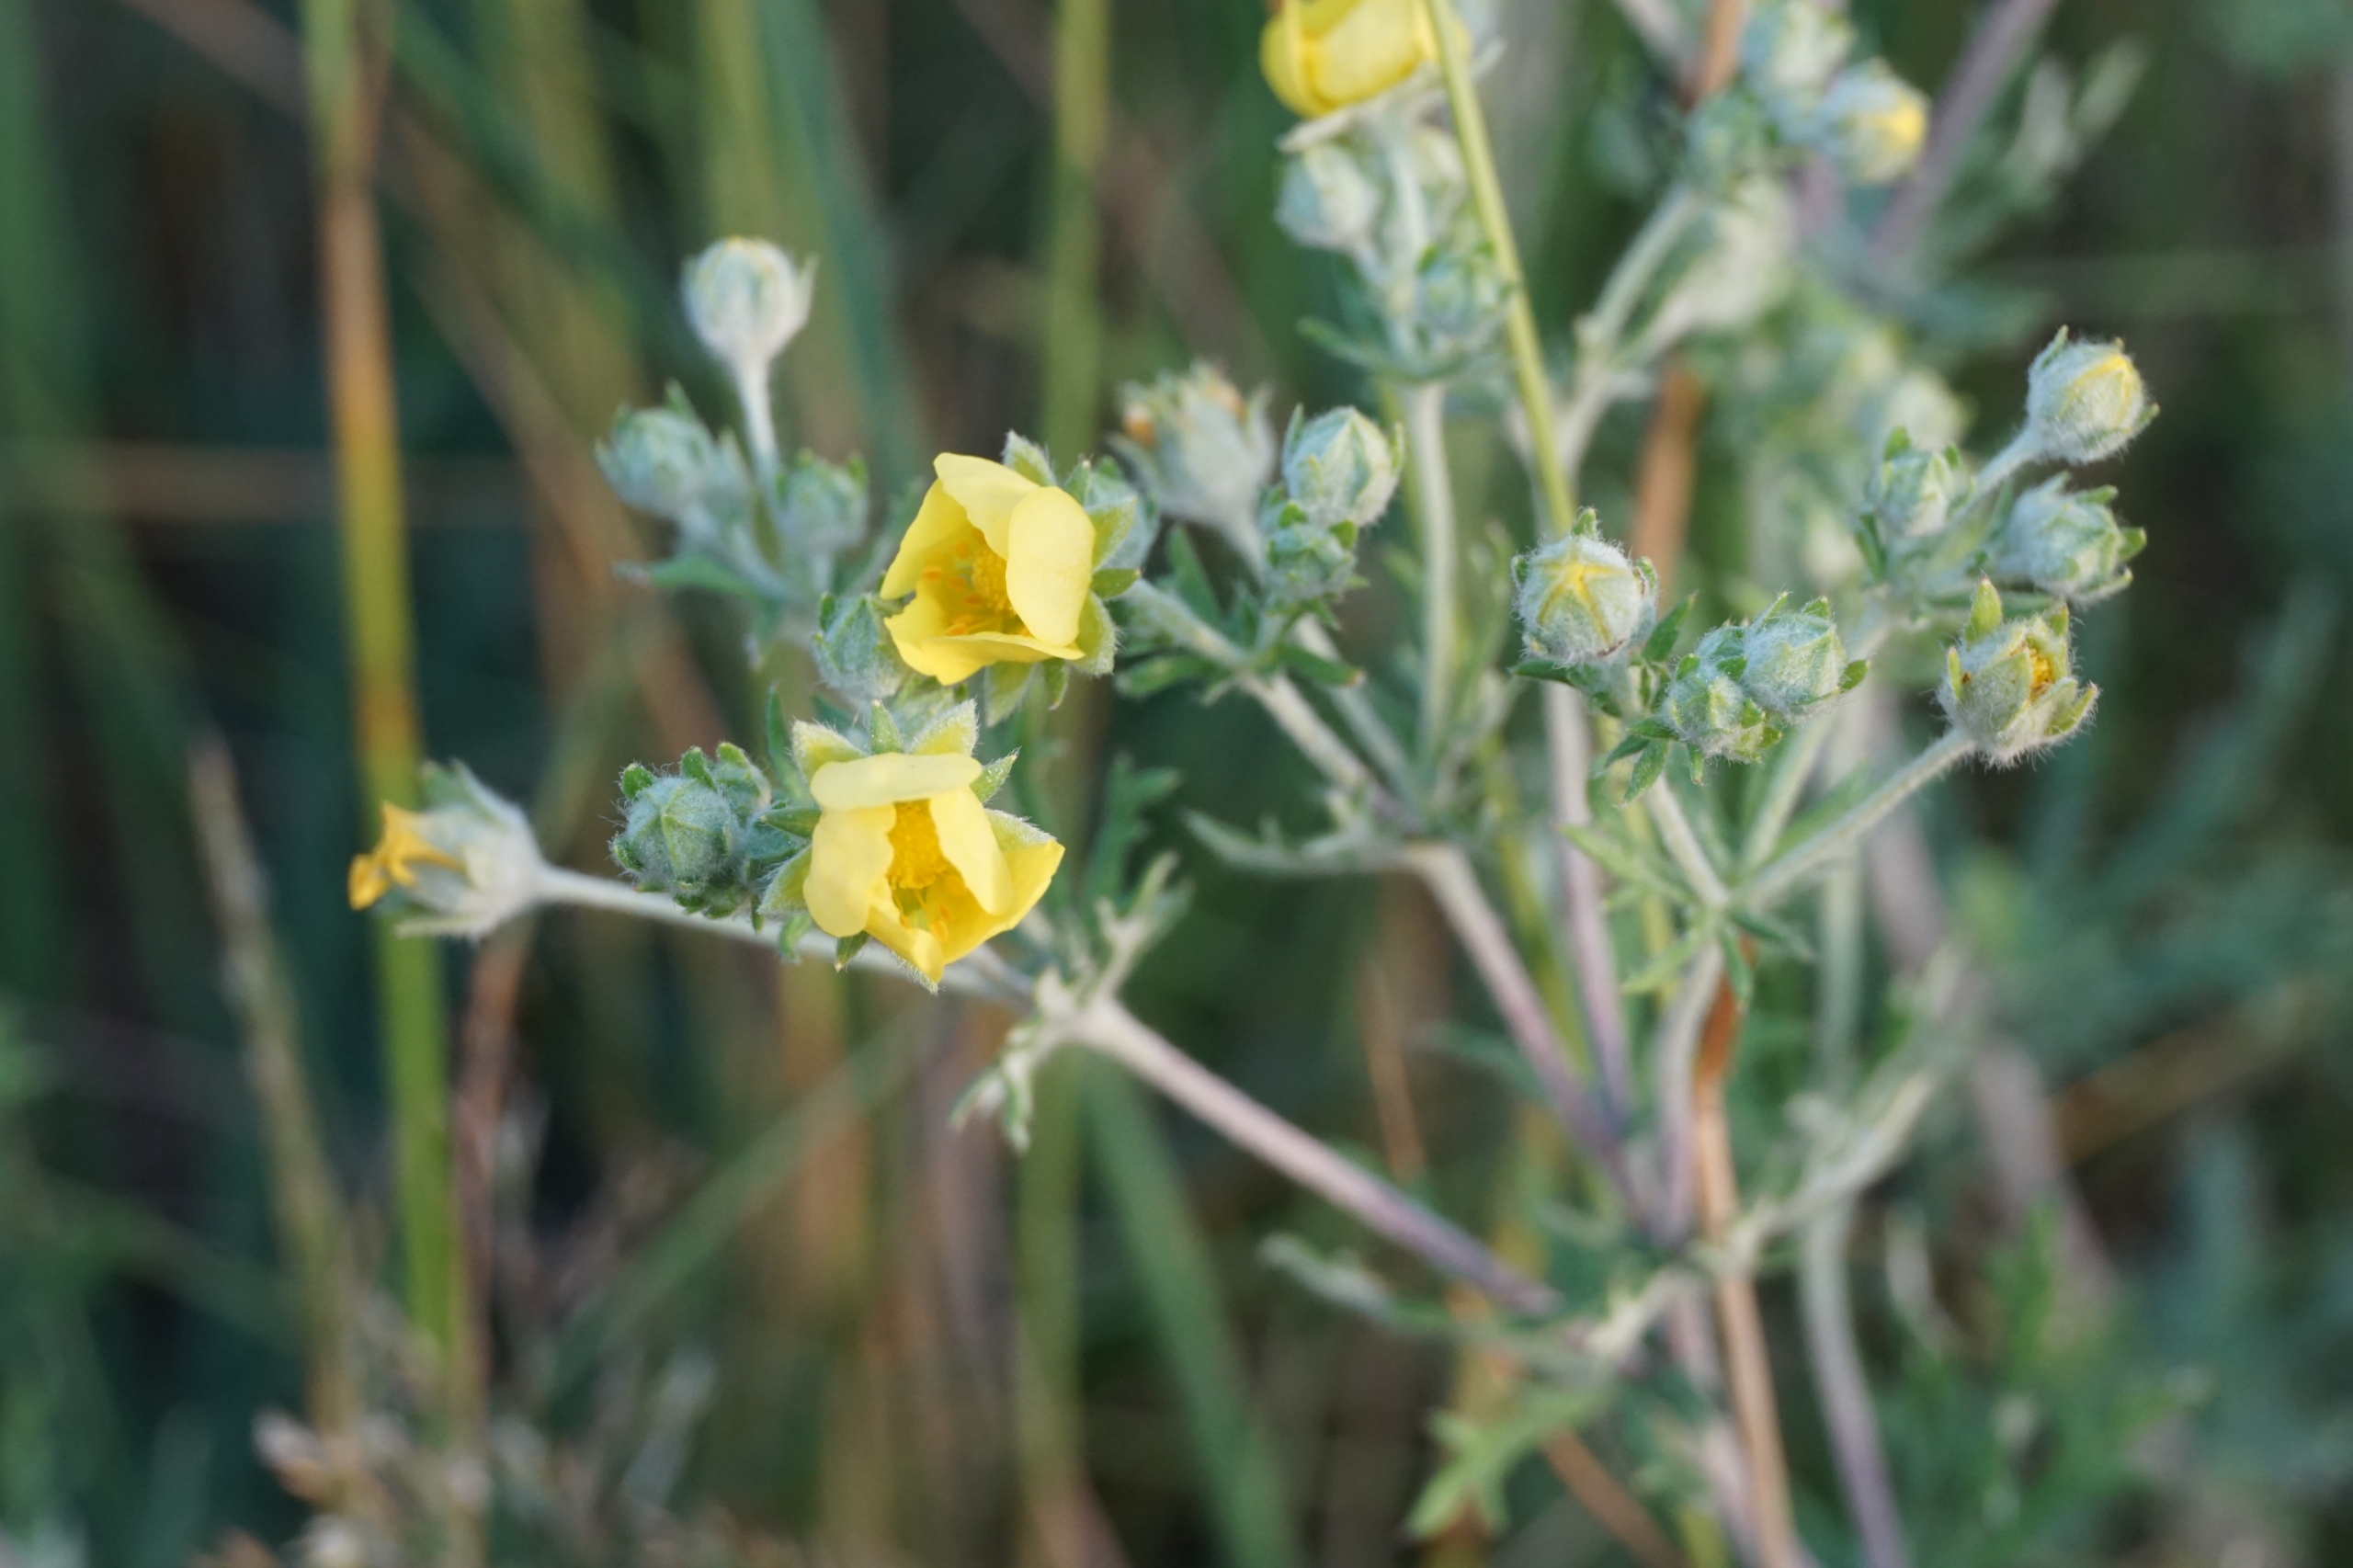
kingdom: Plantae
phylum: Tracheophyta
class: Magnoliopsida
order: Rosales
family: Rosaceae
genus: Potentilla
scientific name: Potentilla argentea
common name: Sølv-potentil
